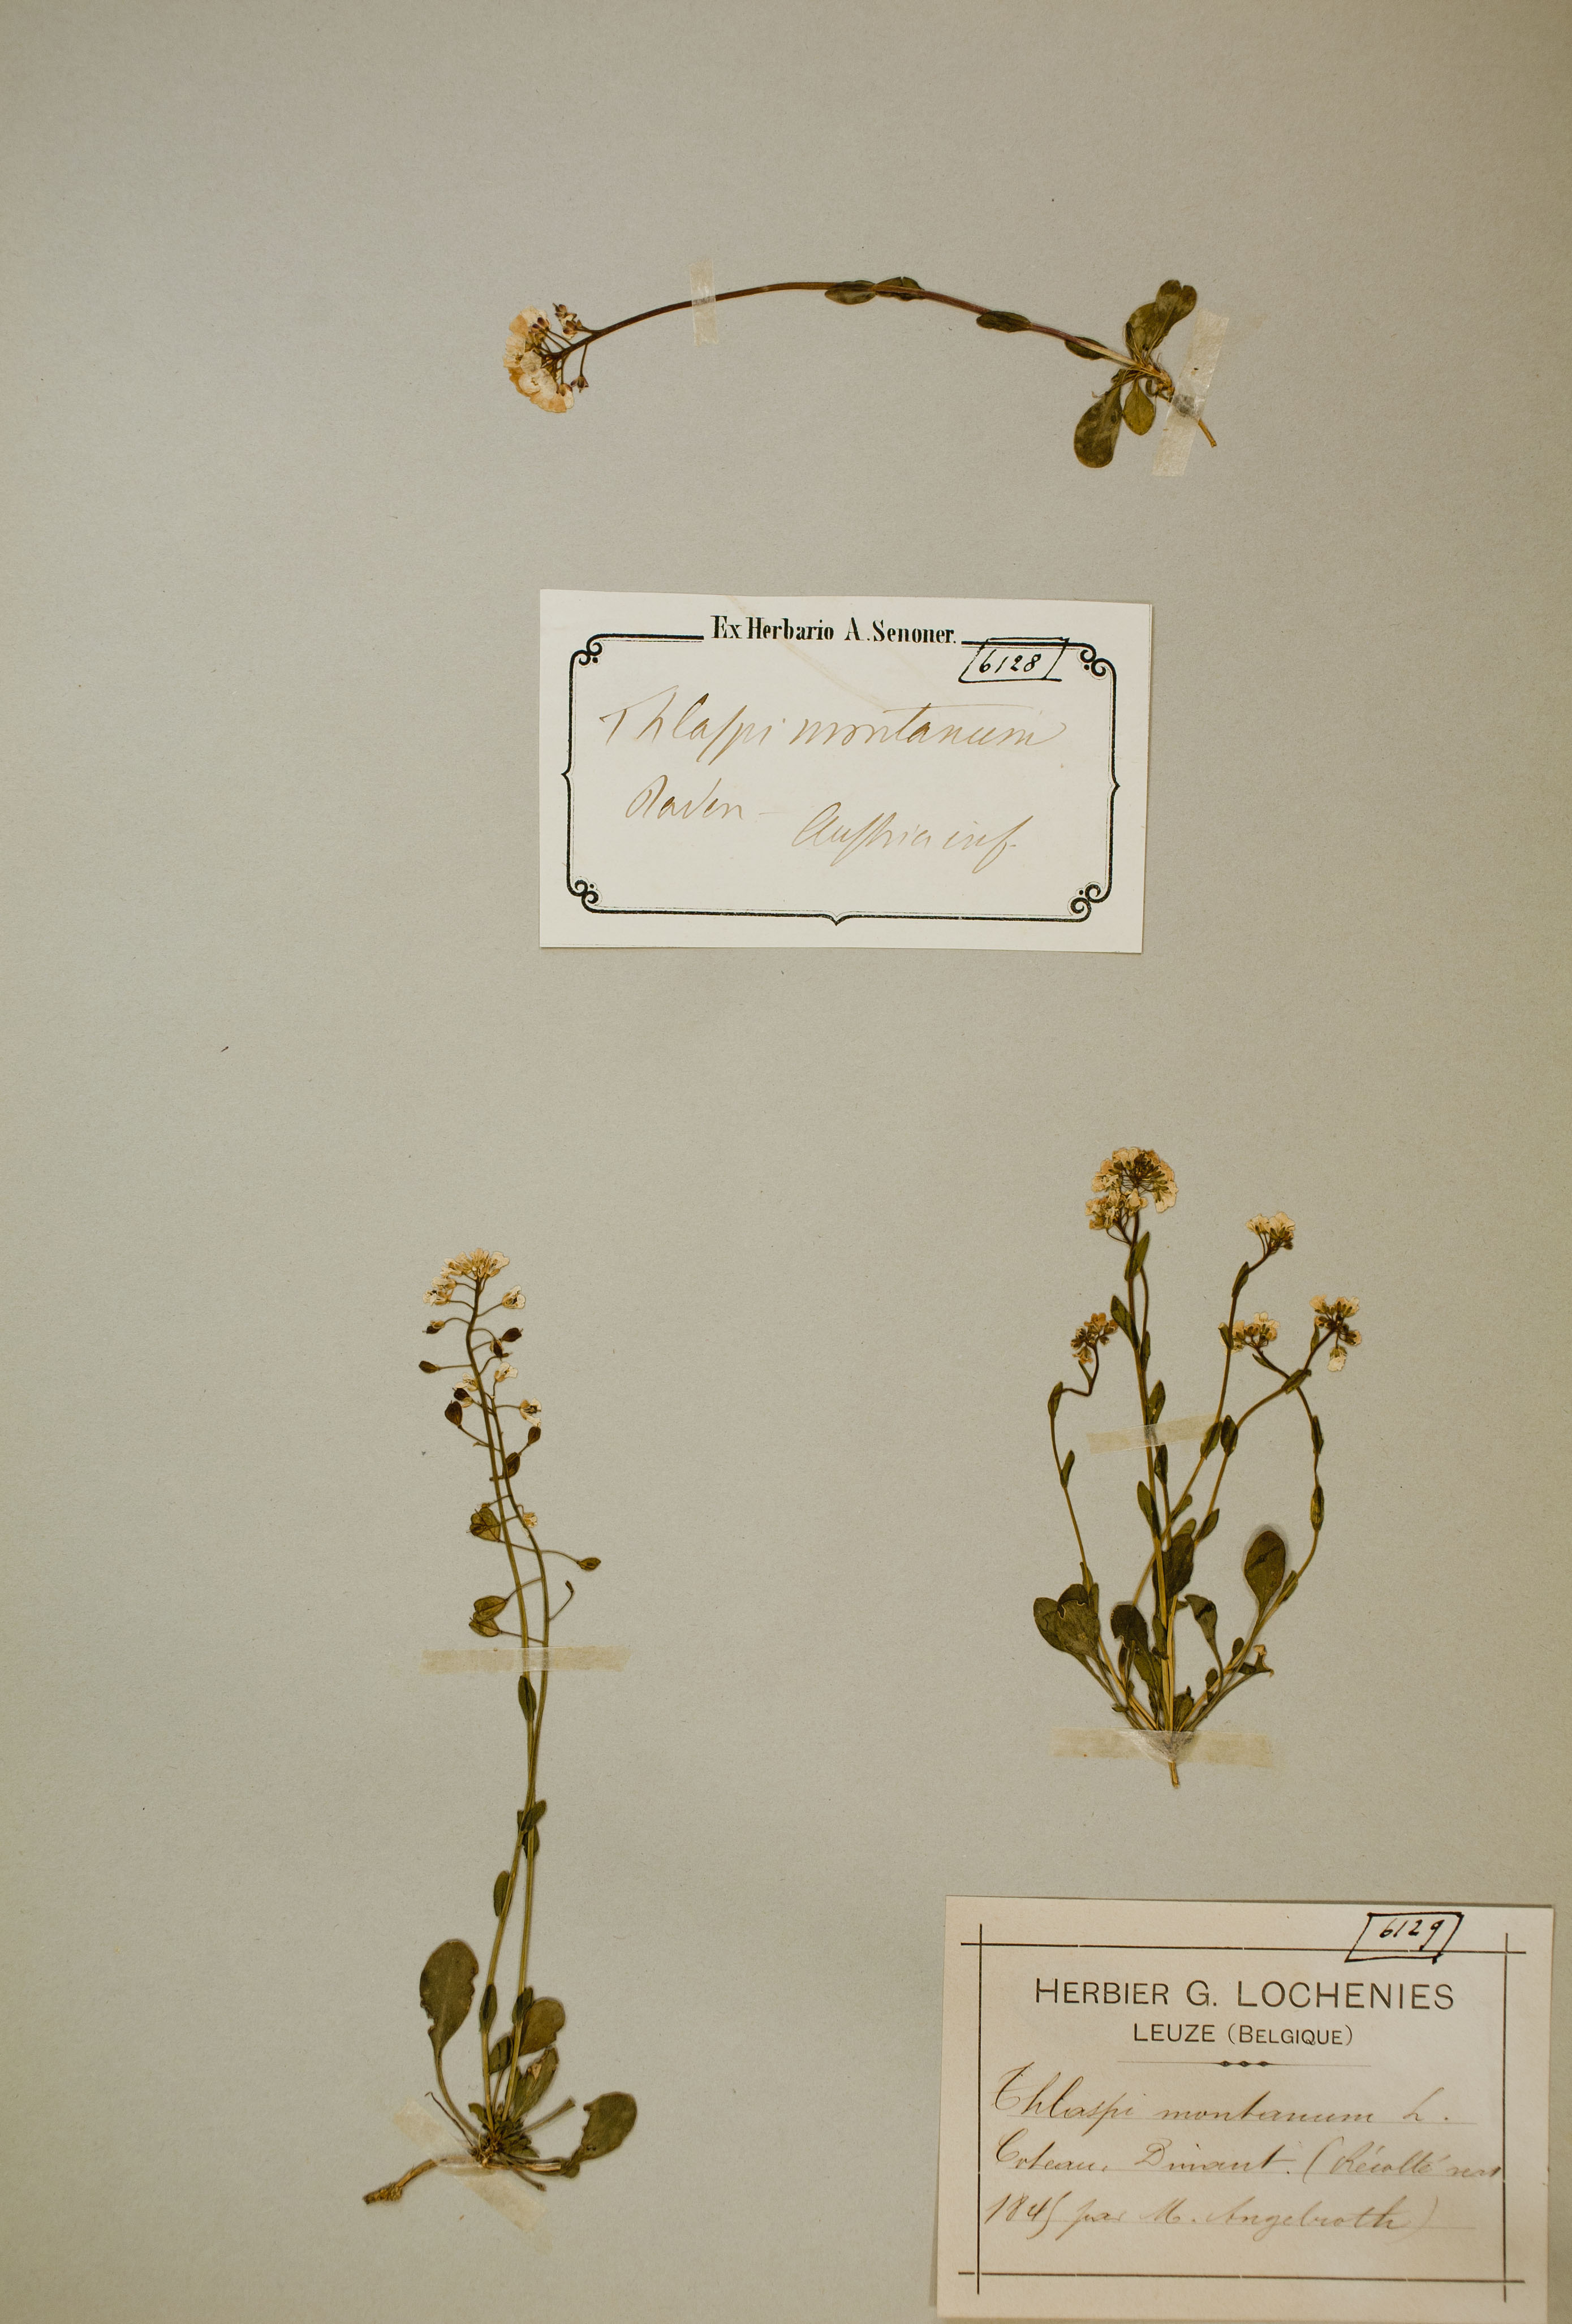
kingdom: Plantae
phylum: Tracheophyta
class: Magnoliopsida
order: Brassicales
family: Brassicaceae
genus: Noccaea
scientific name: Noccaea montana
